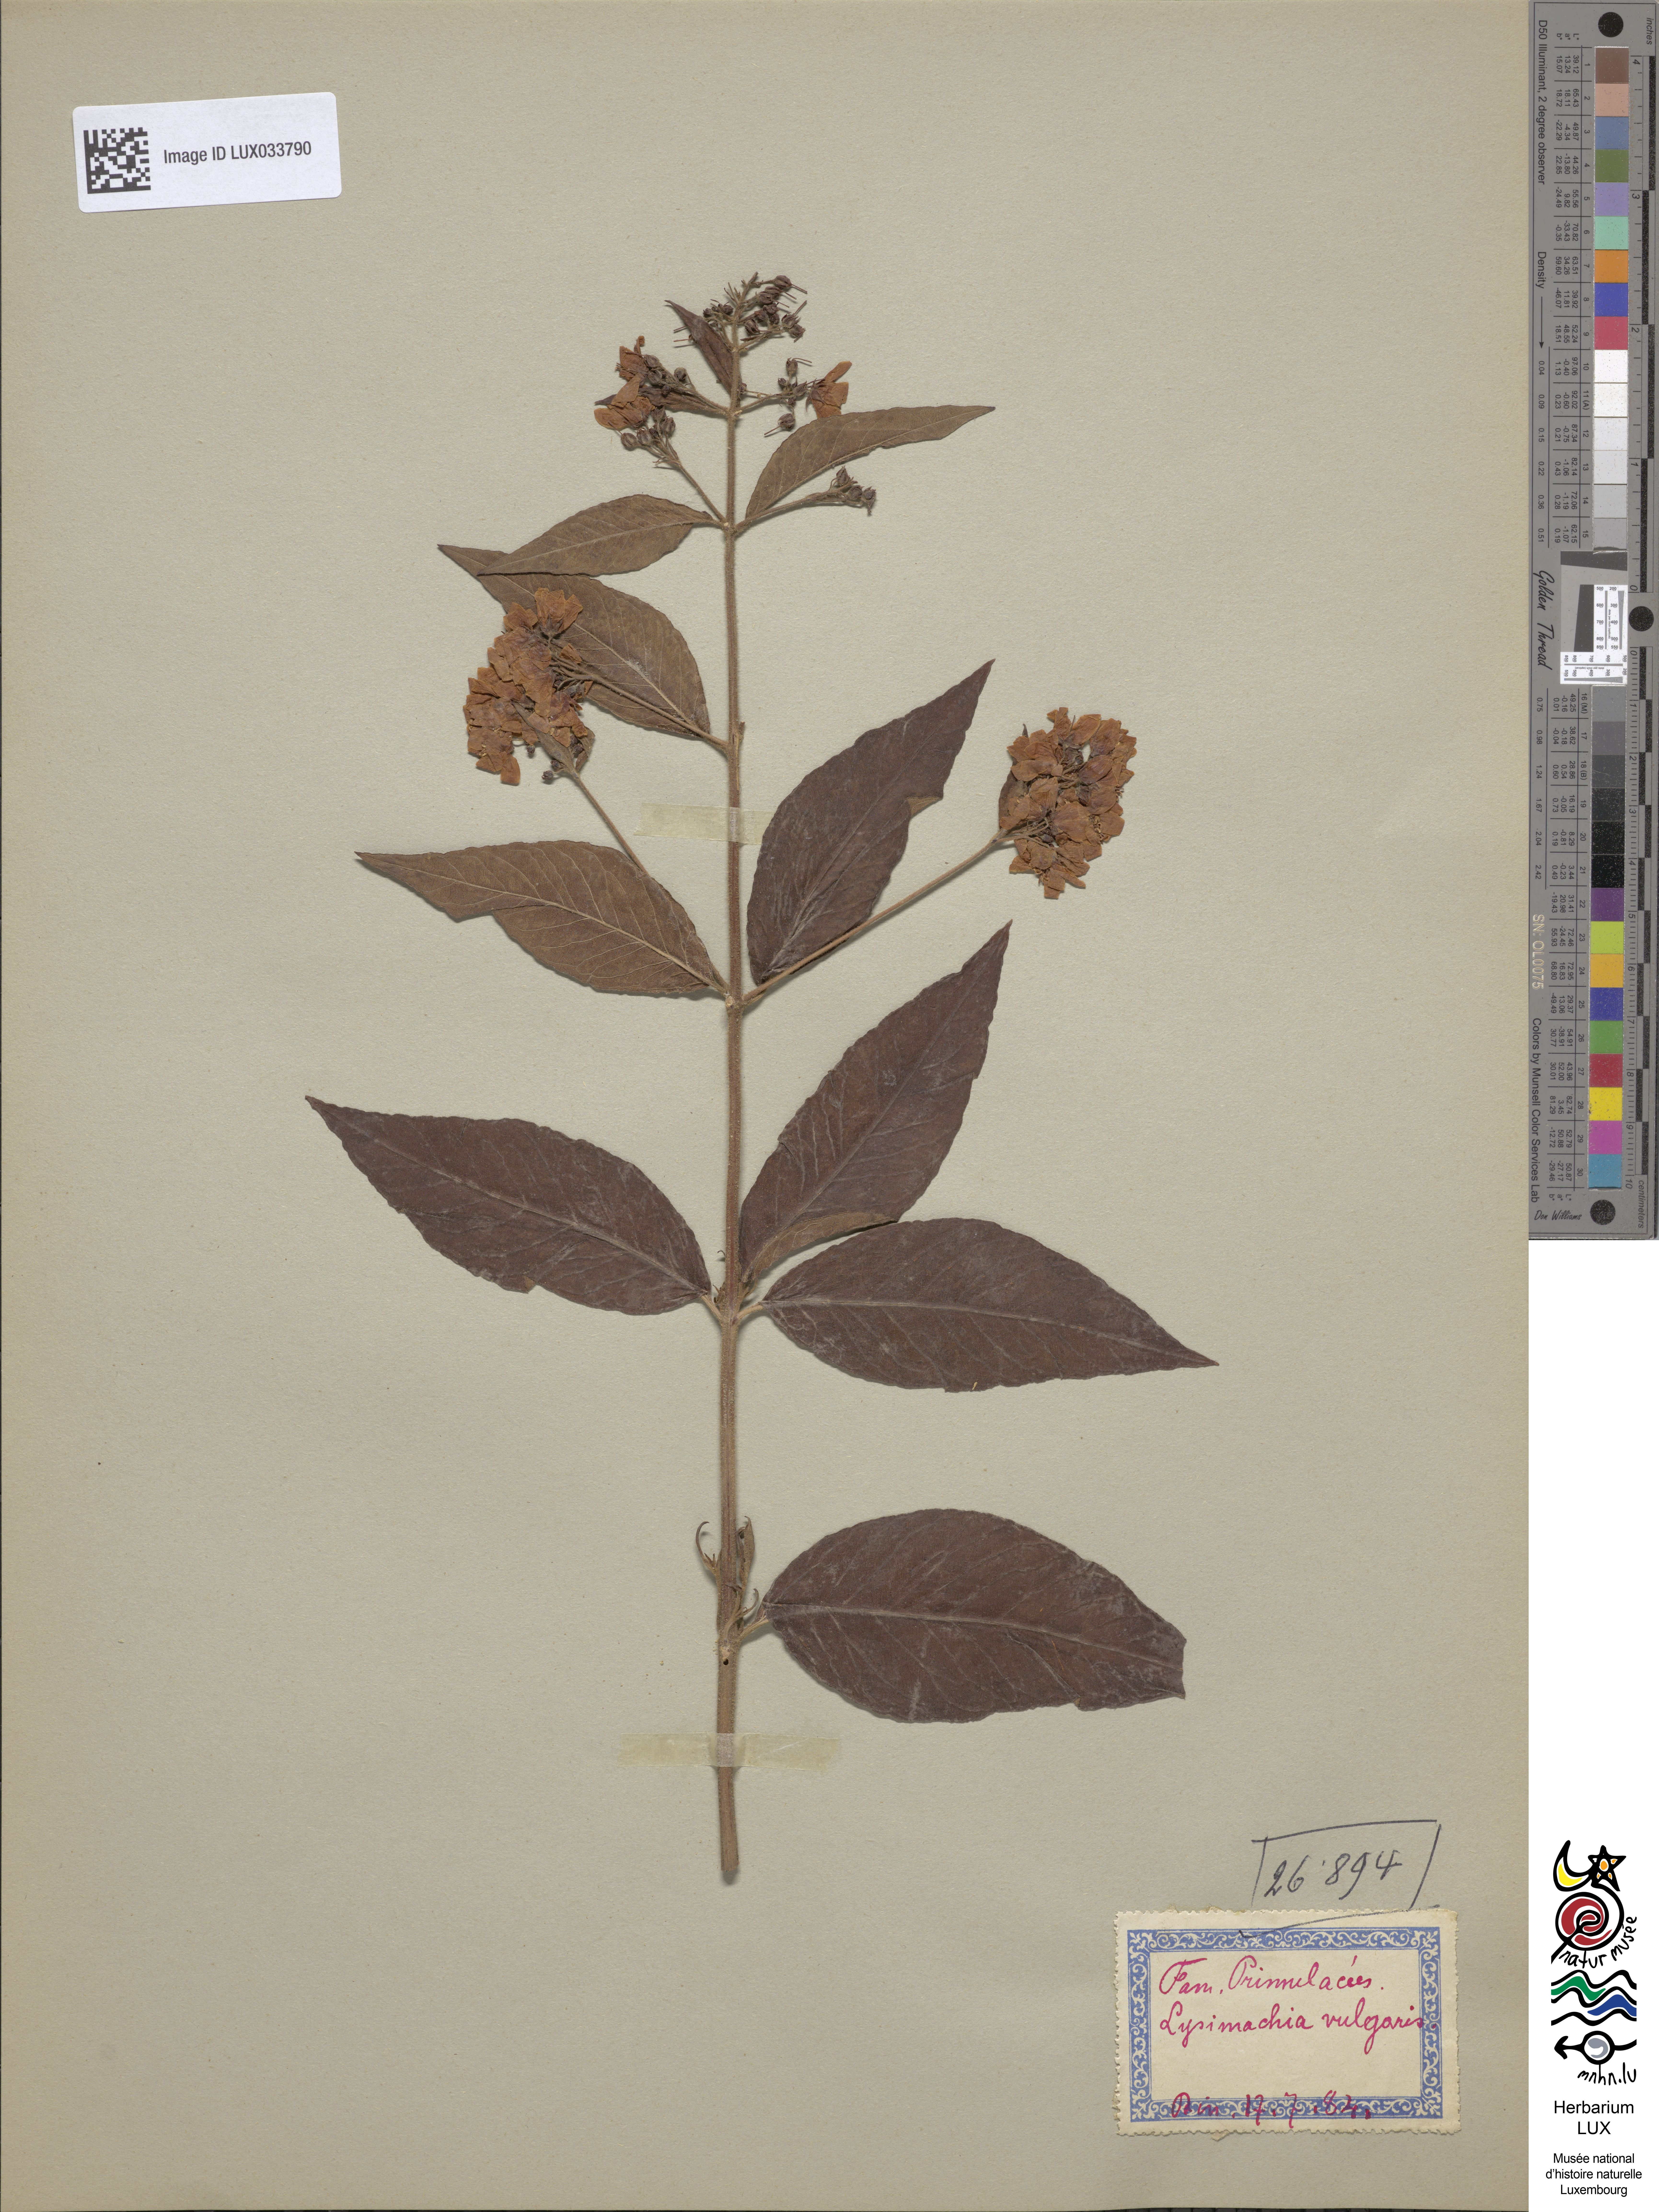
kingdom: Plantae
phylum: Tracheophyta
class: Magnoliopsida
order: Ericales
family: Primulaceae
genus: Lysimachia
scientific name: Lysimachia vulgaris
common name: Yellow loosestrife
